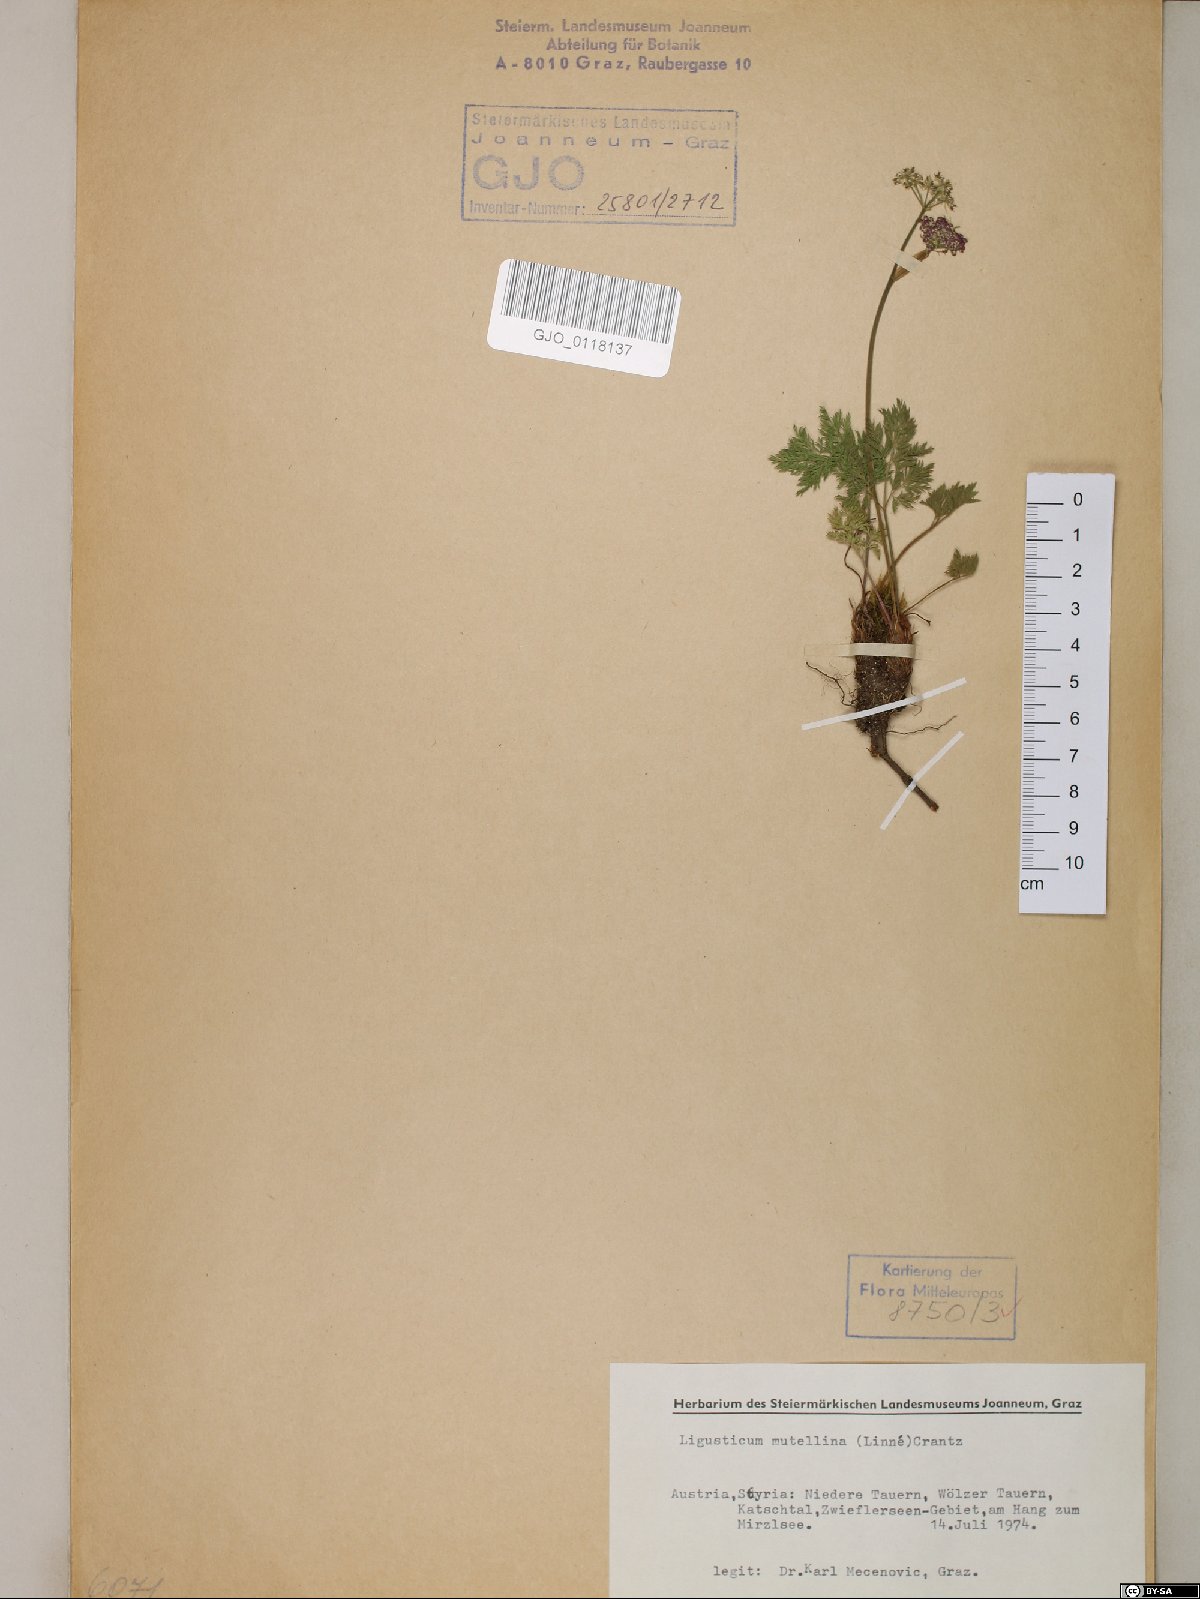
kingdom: Plantae
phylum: Tracheophyta
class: Magnoliopsida
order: Apiales
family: Apiaceae
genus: Mutellina
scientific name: Mutellina adonidifolia
